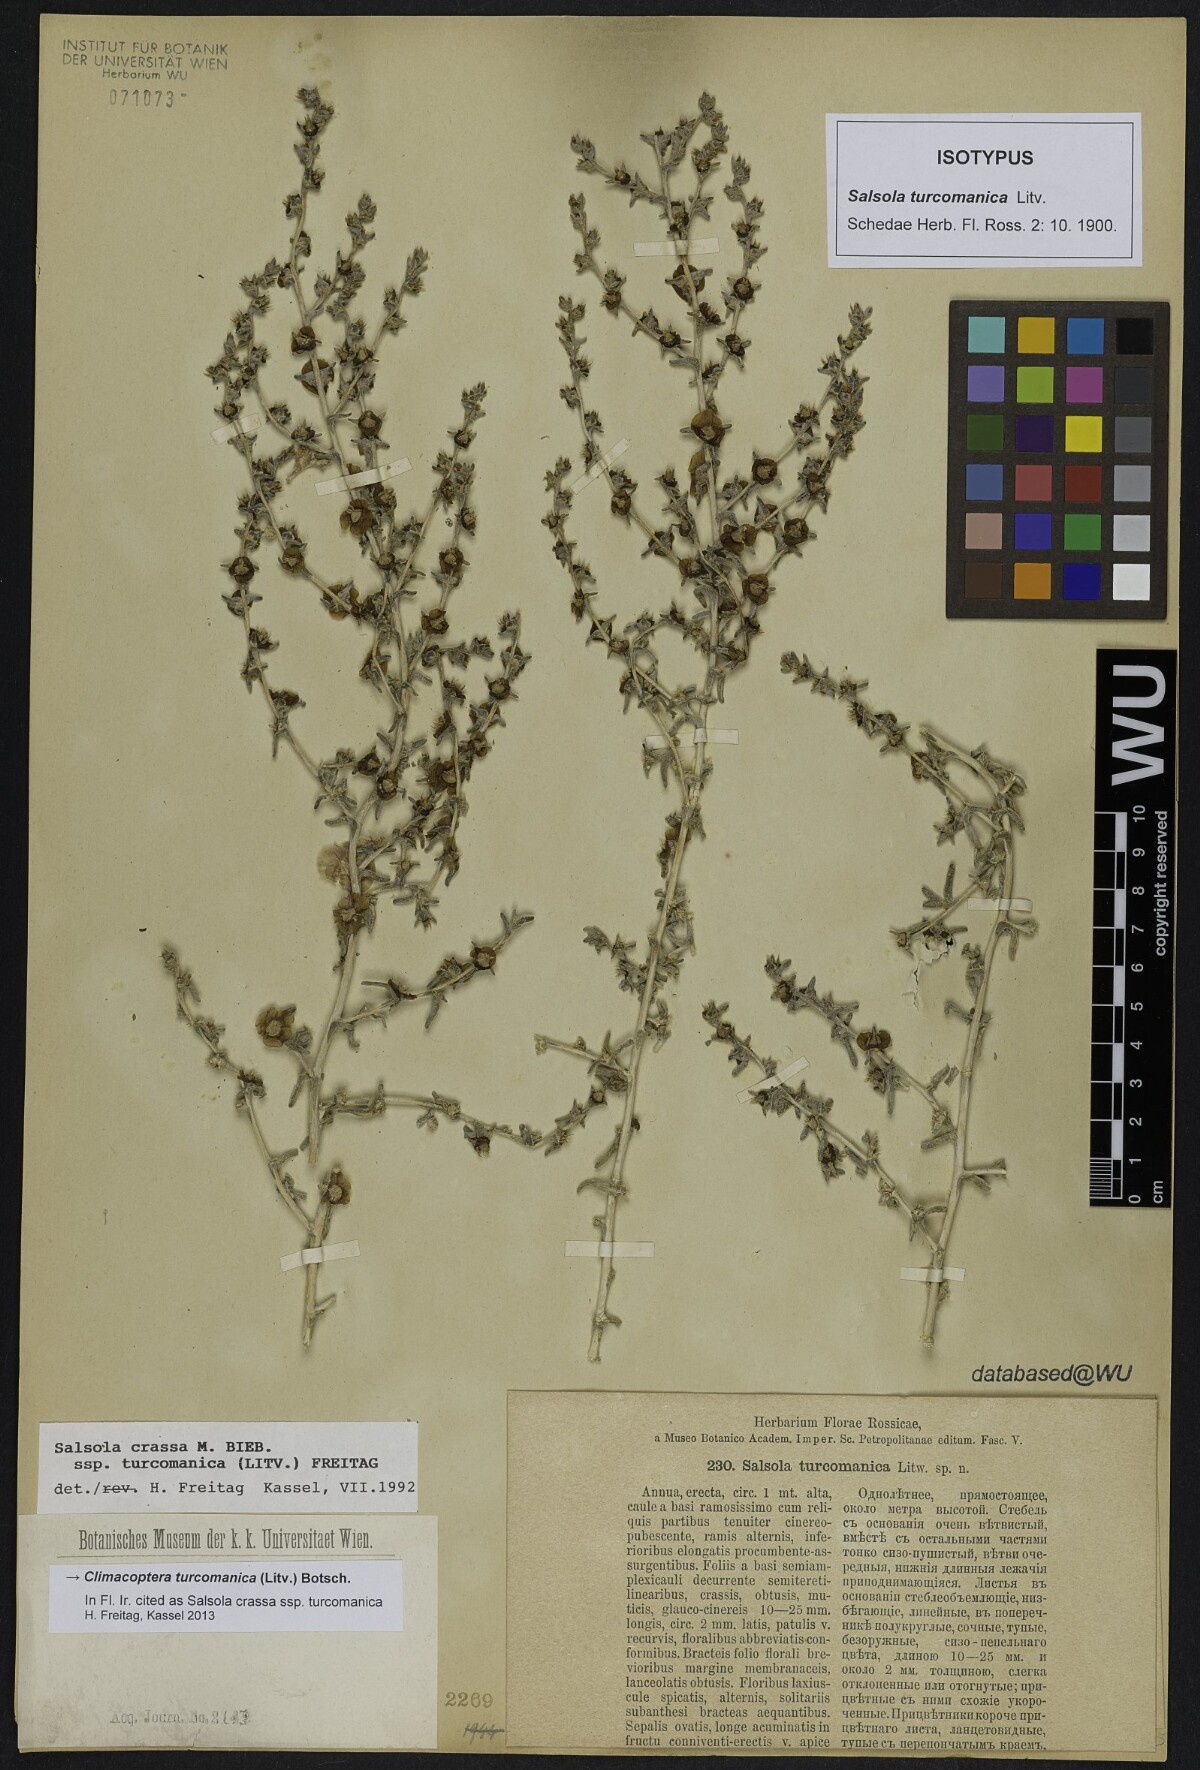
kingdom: Plantae
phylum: Tracheophyta
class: Magnoliopsida
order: Caryophyllales
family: Amaranthaceae
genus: Climacoptera
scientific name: Climacoptera turcomanica
